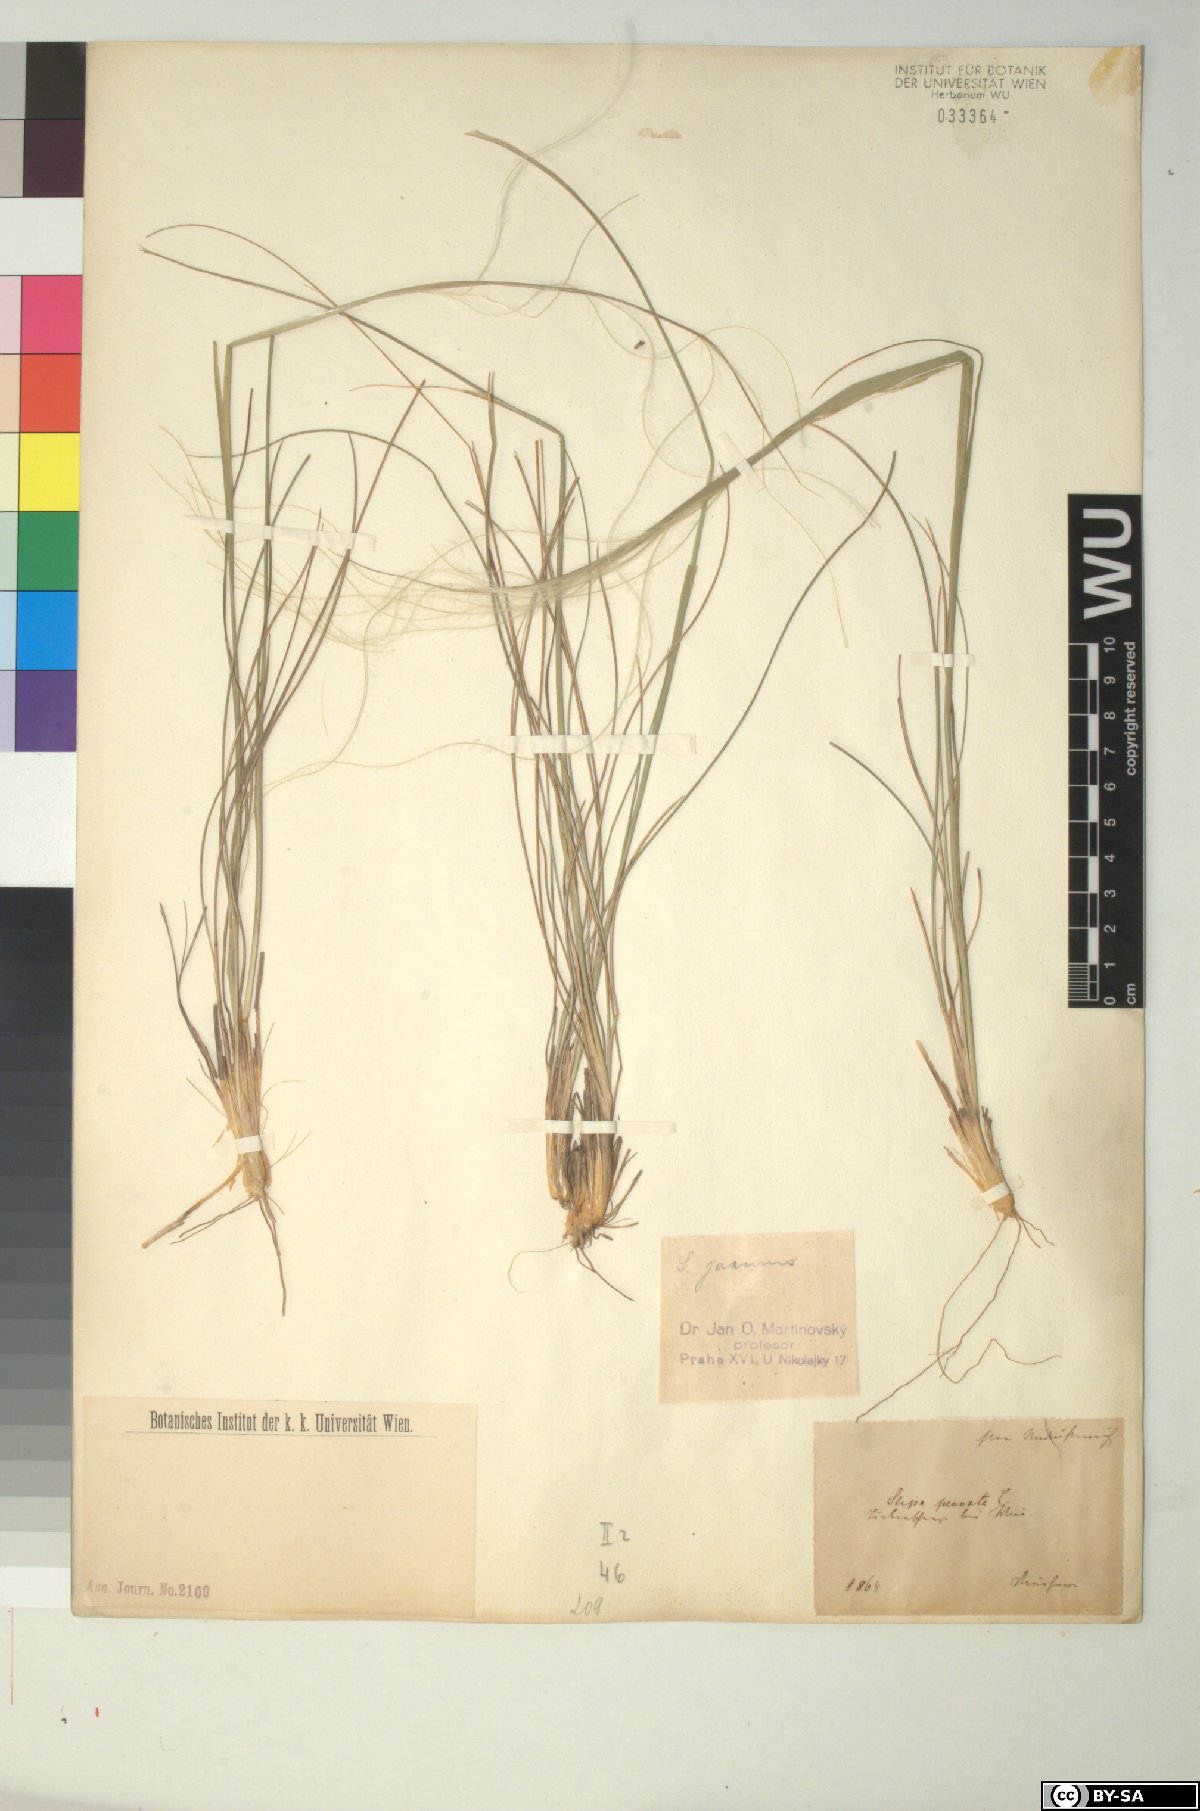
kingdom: Plantae
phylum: Tracheophyta
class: Liliopsida
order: Poales
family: Poaceae
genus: Stipa
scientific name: Stipa pennata
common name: European feather grass
